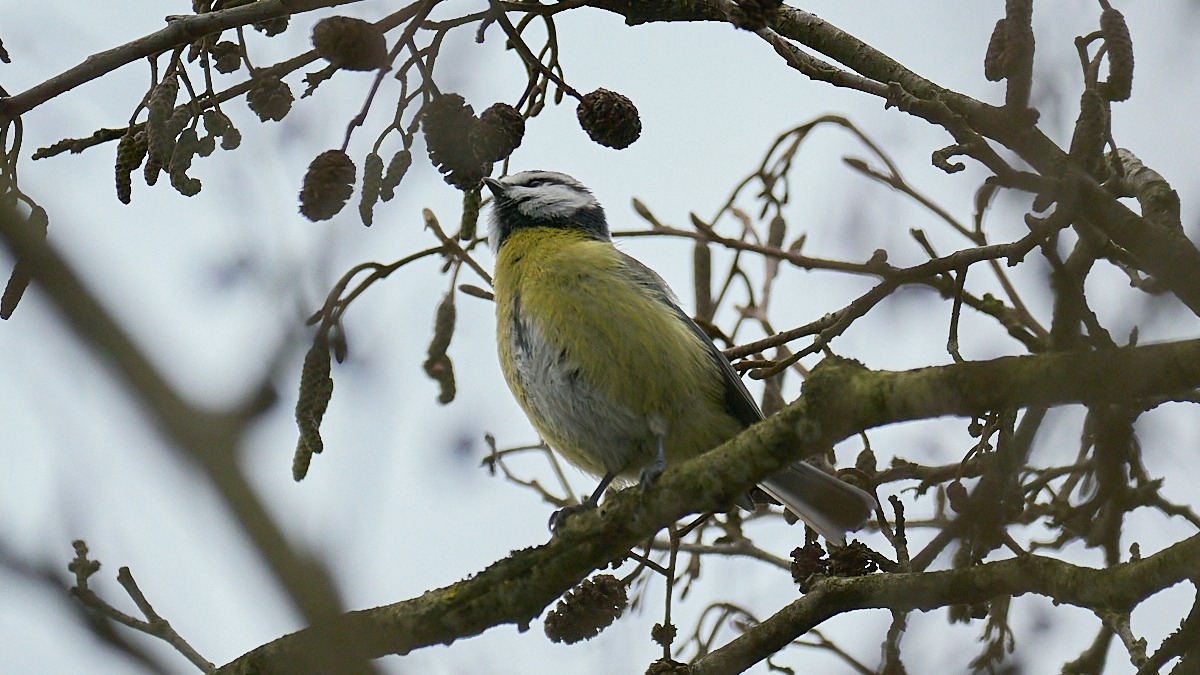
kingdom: Animalia
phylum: Chordata
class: Aves
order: Passeriformes
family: Paridae
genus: Cyanistes
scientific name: Cyanistes caeruleus
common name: Blåmejse
